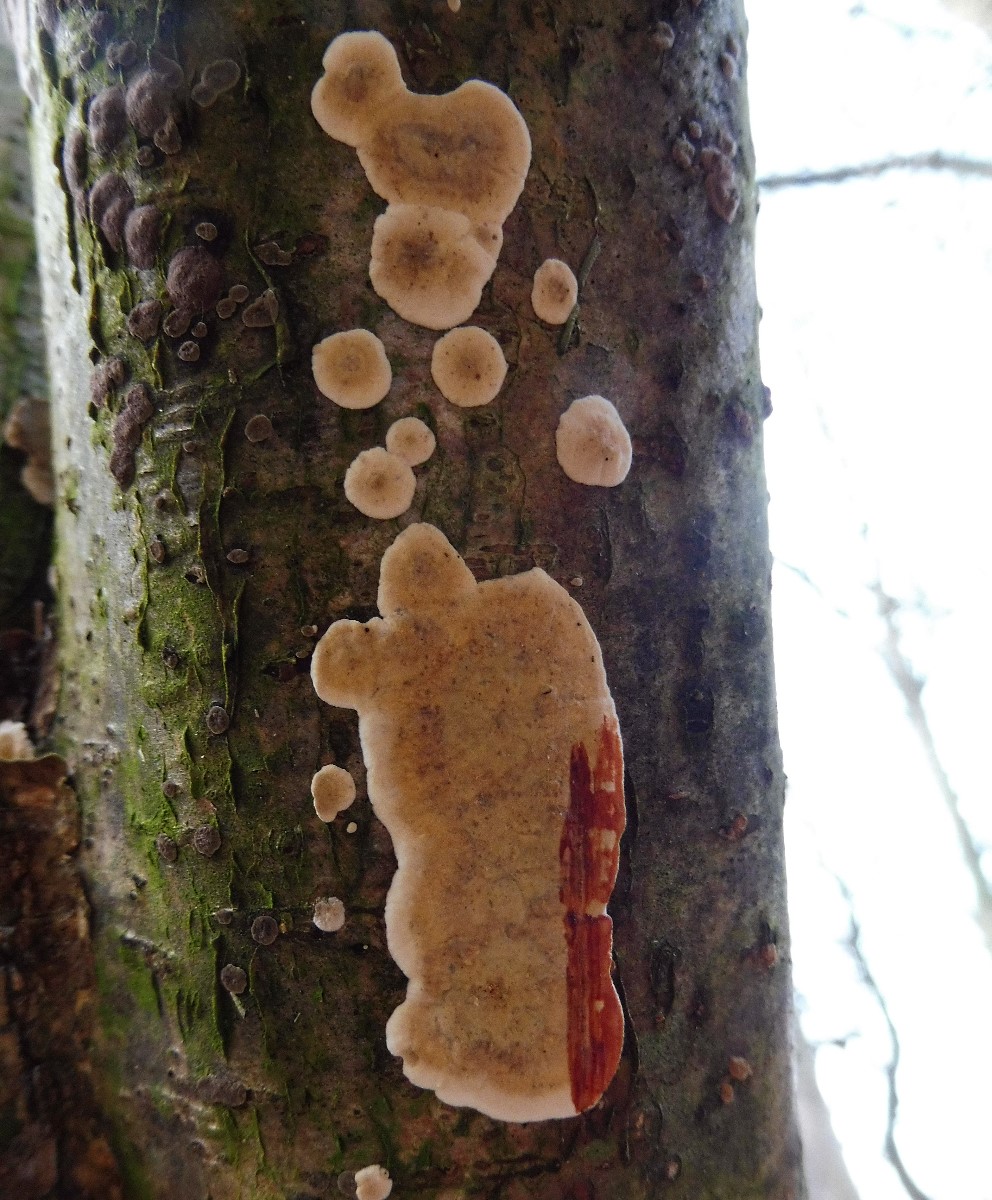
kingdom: Fungi
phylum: Basidiomycota
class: Agaricomycetes
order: Russulales
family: Stereaceae
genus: Stereum
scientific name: Stereum rugosum
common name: rynket lædersvamp
